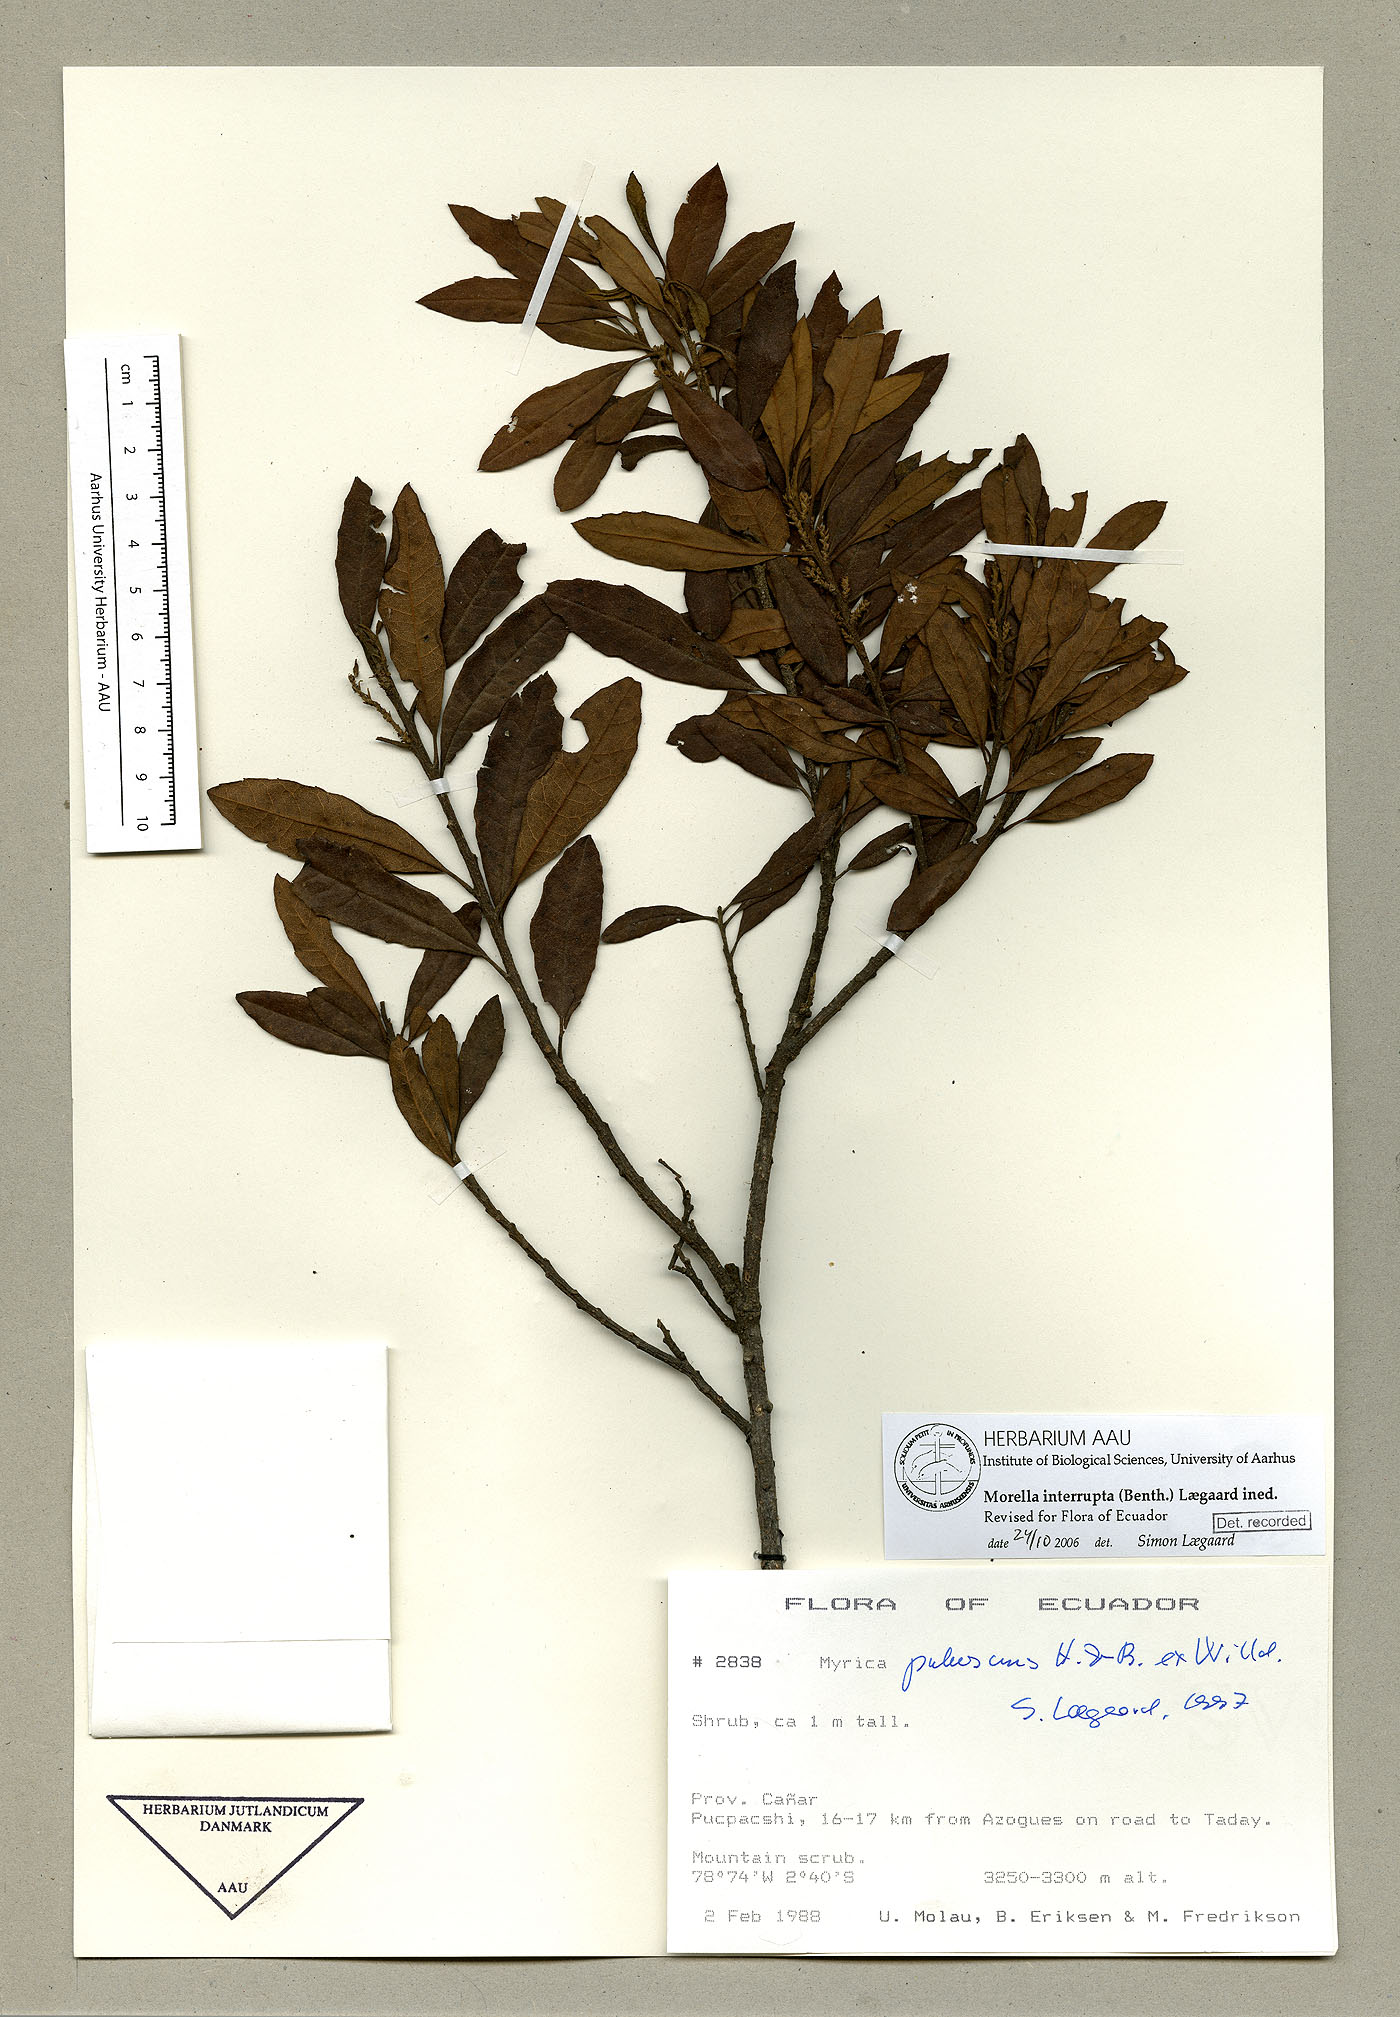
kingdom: Plantae
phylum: Tracheophyta
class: Magnoliopsida
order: Fagales
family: Myricaceae
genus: Morella
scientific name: Morella interrupta
